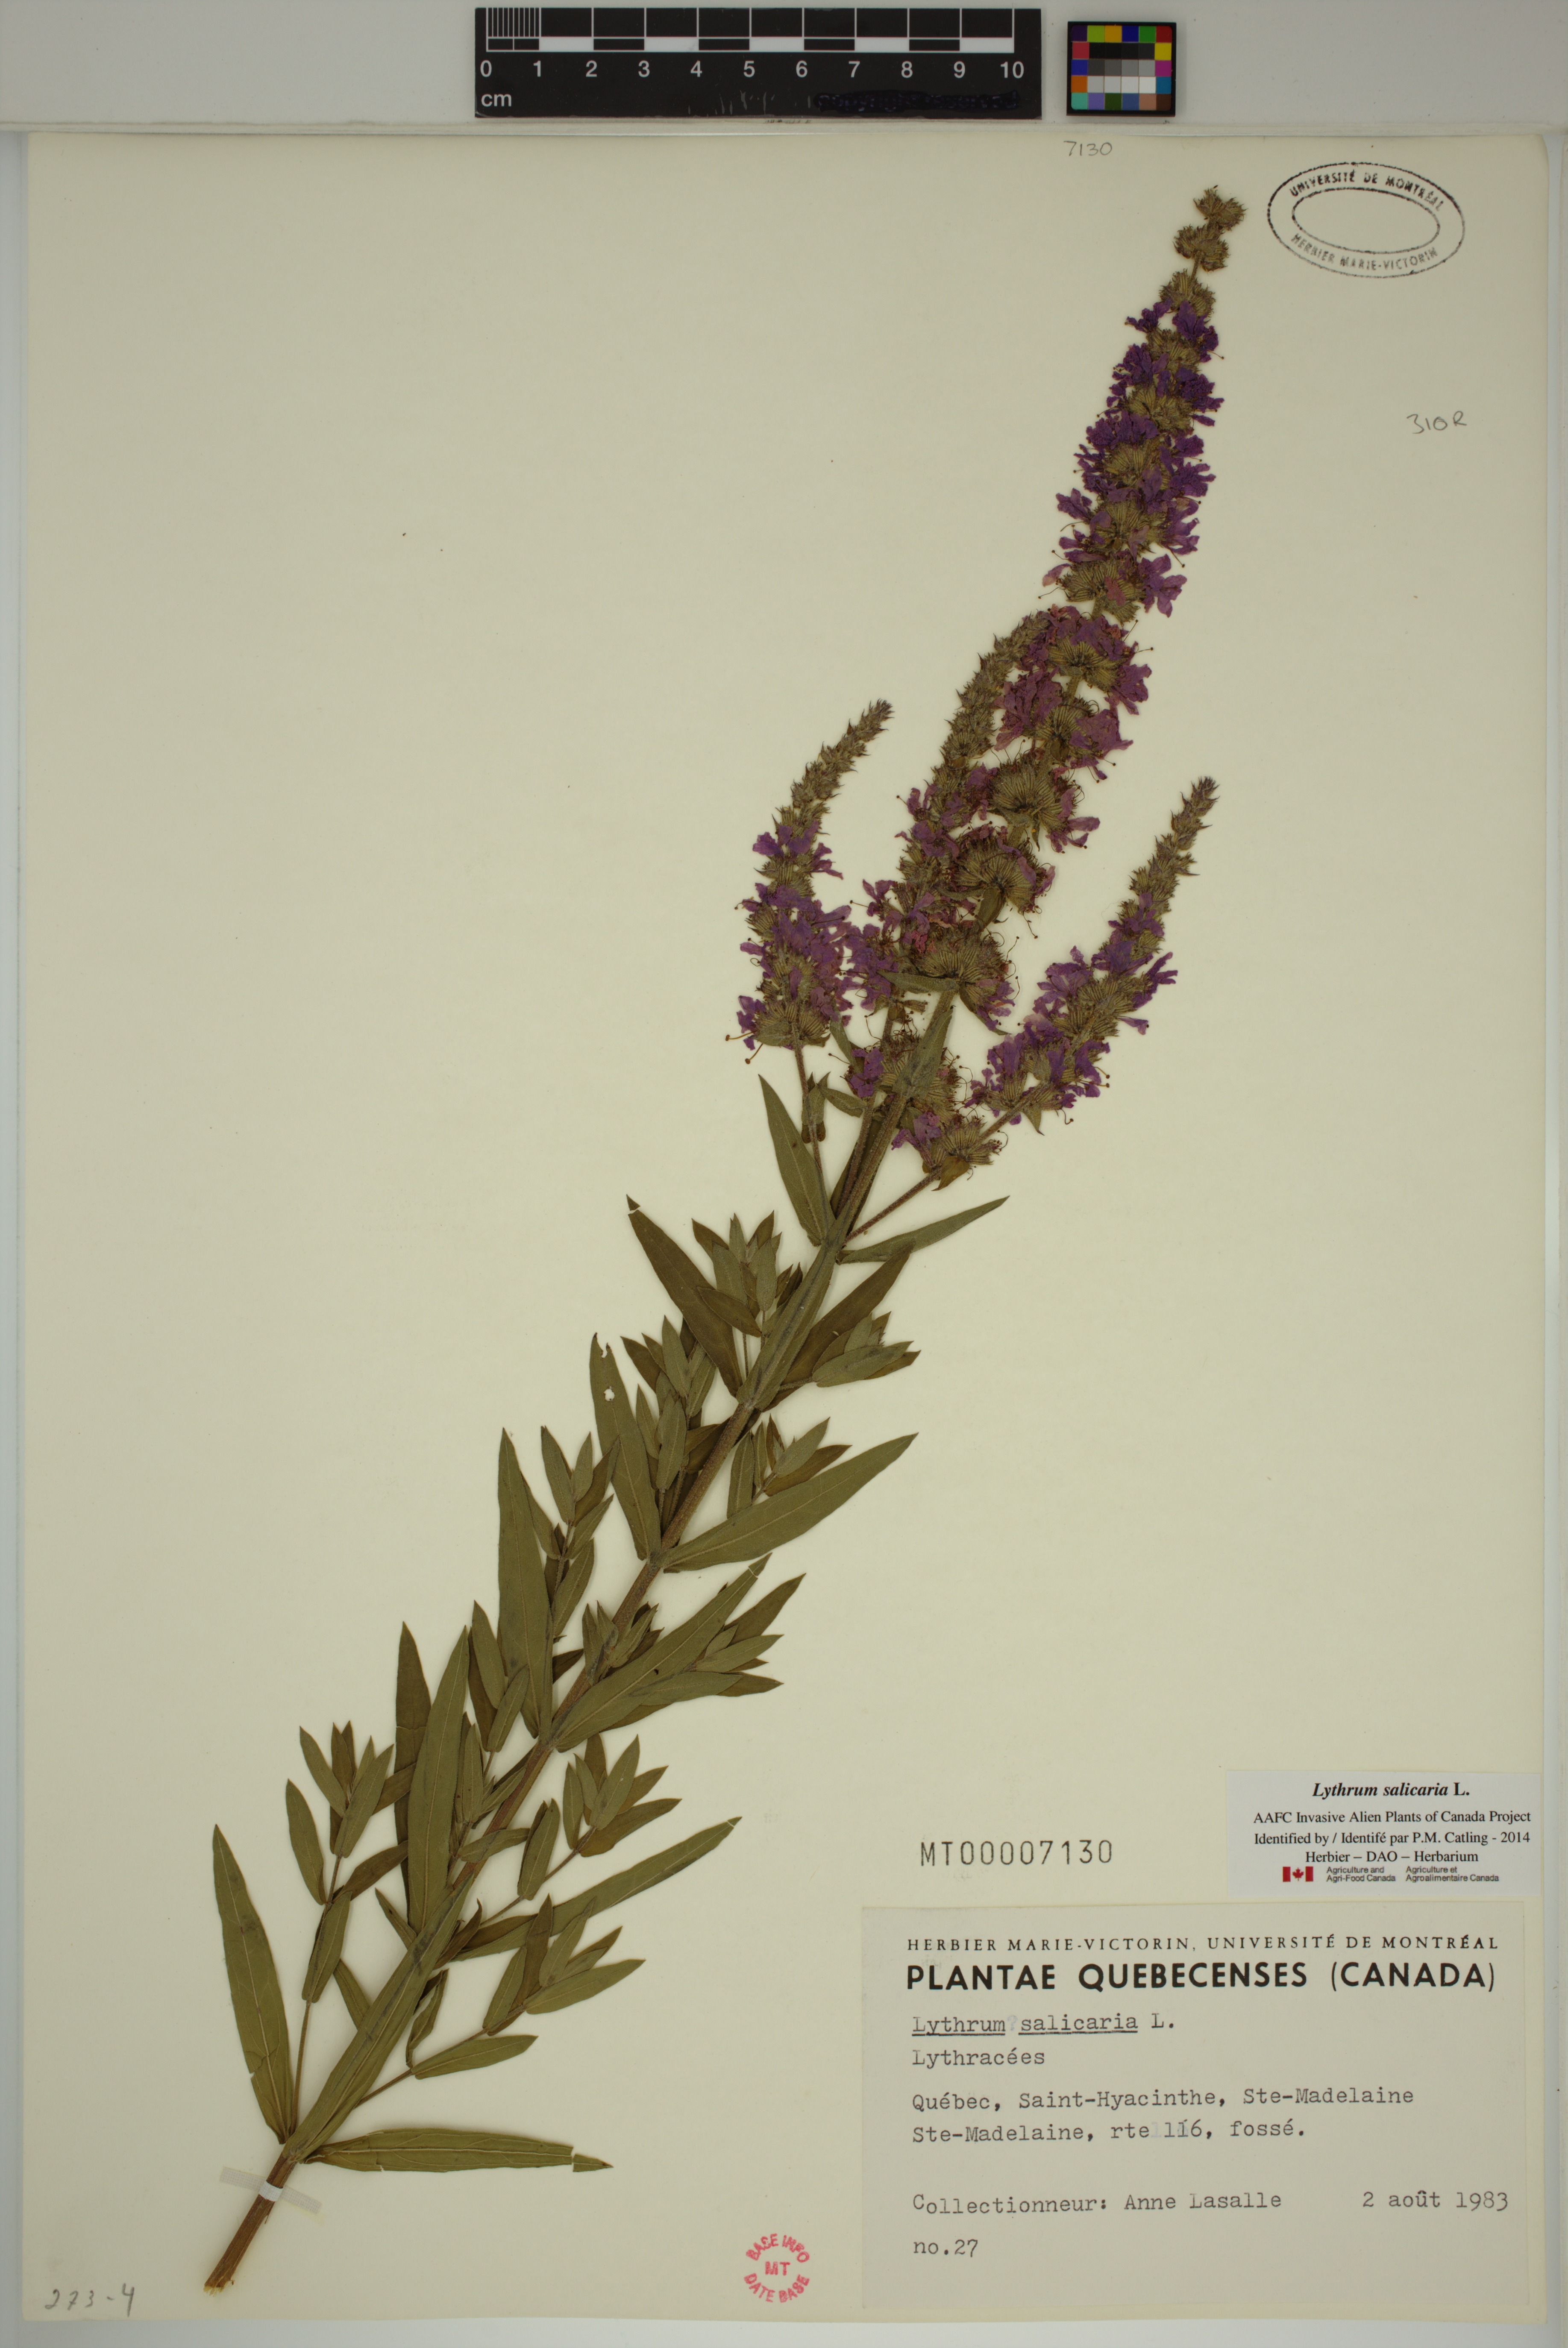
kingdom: Plantae
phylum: Tracheophyta
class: Magnoliopsida
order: Myrtales
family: Lythraceae
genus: Lythrum
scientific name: Lythrum salicaria
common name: Purple loosestrife
